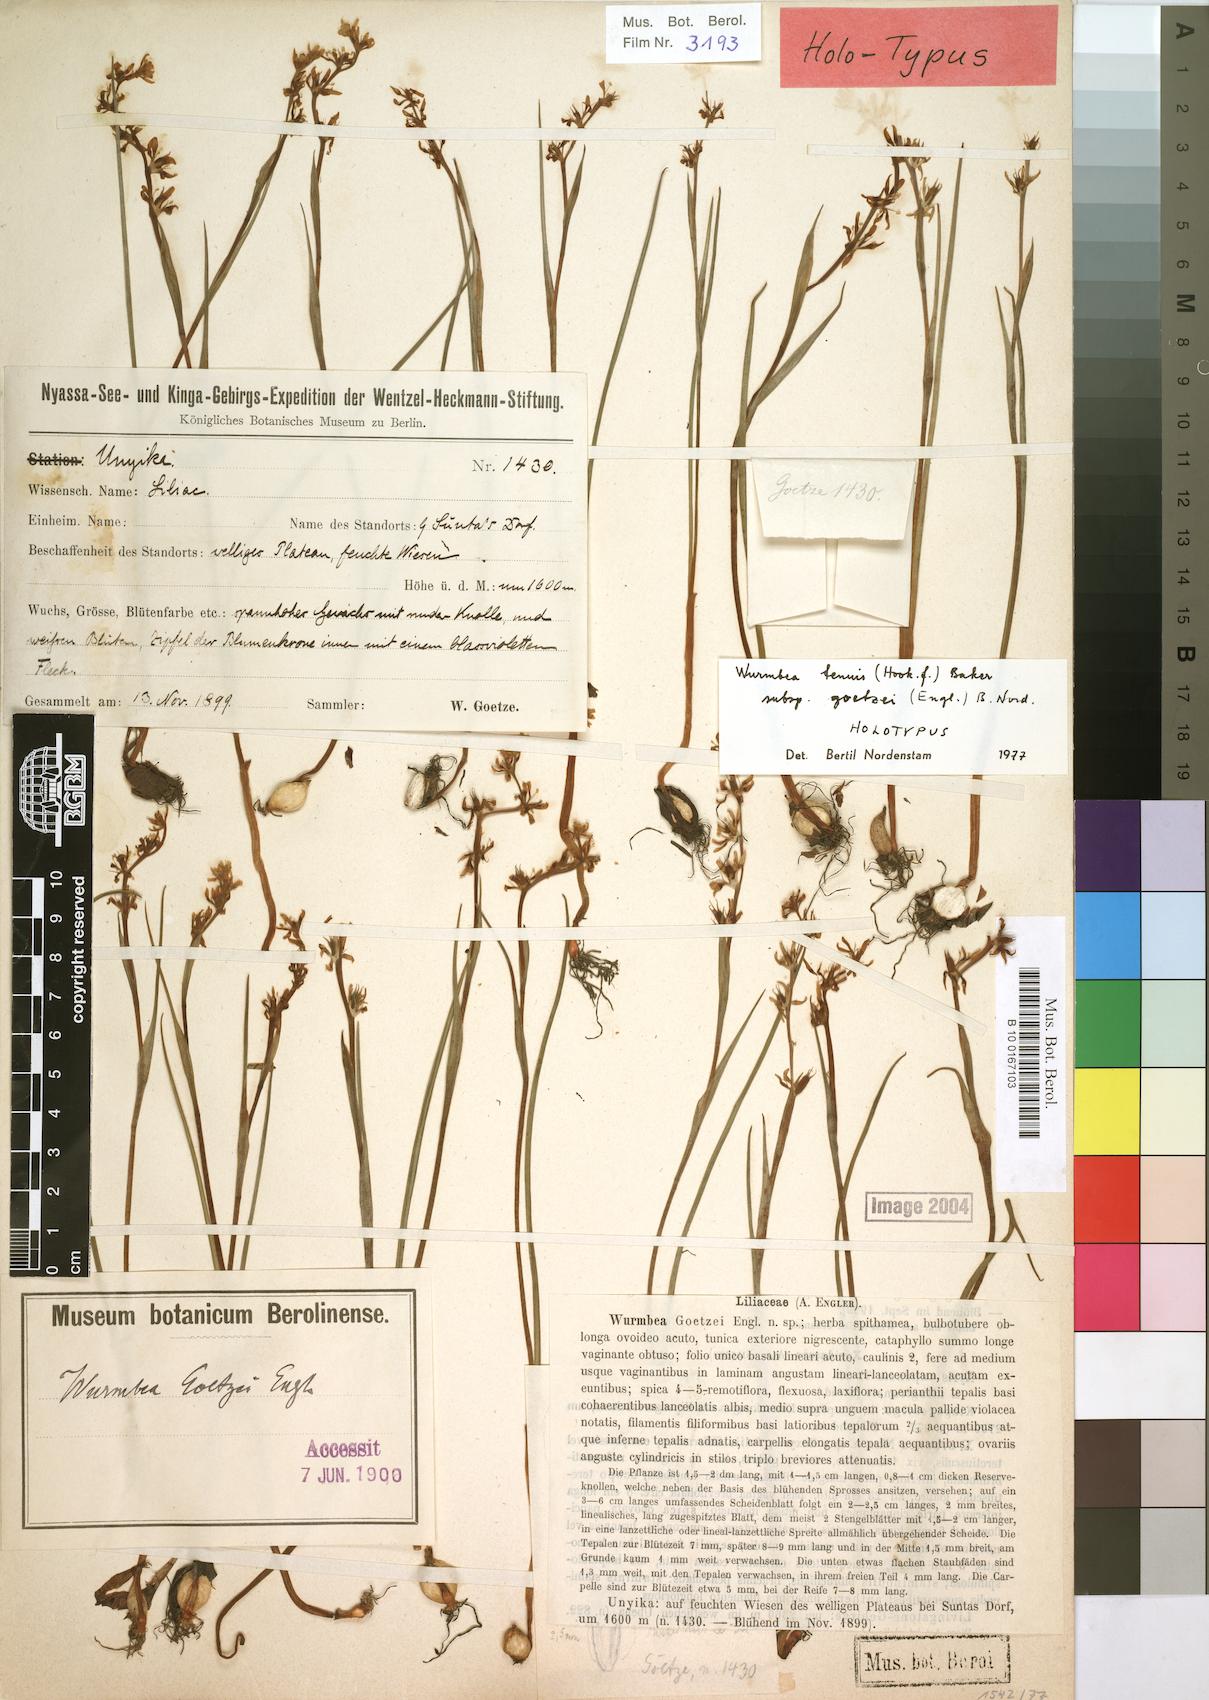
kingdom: Plantae
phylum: Tracheophyta
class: Liliopsida
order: Liliales
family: Colchicaceae
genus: Wurmbea
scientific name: Wurmbea tenuis
